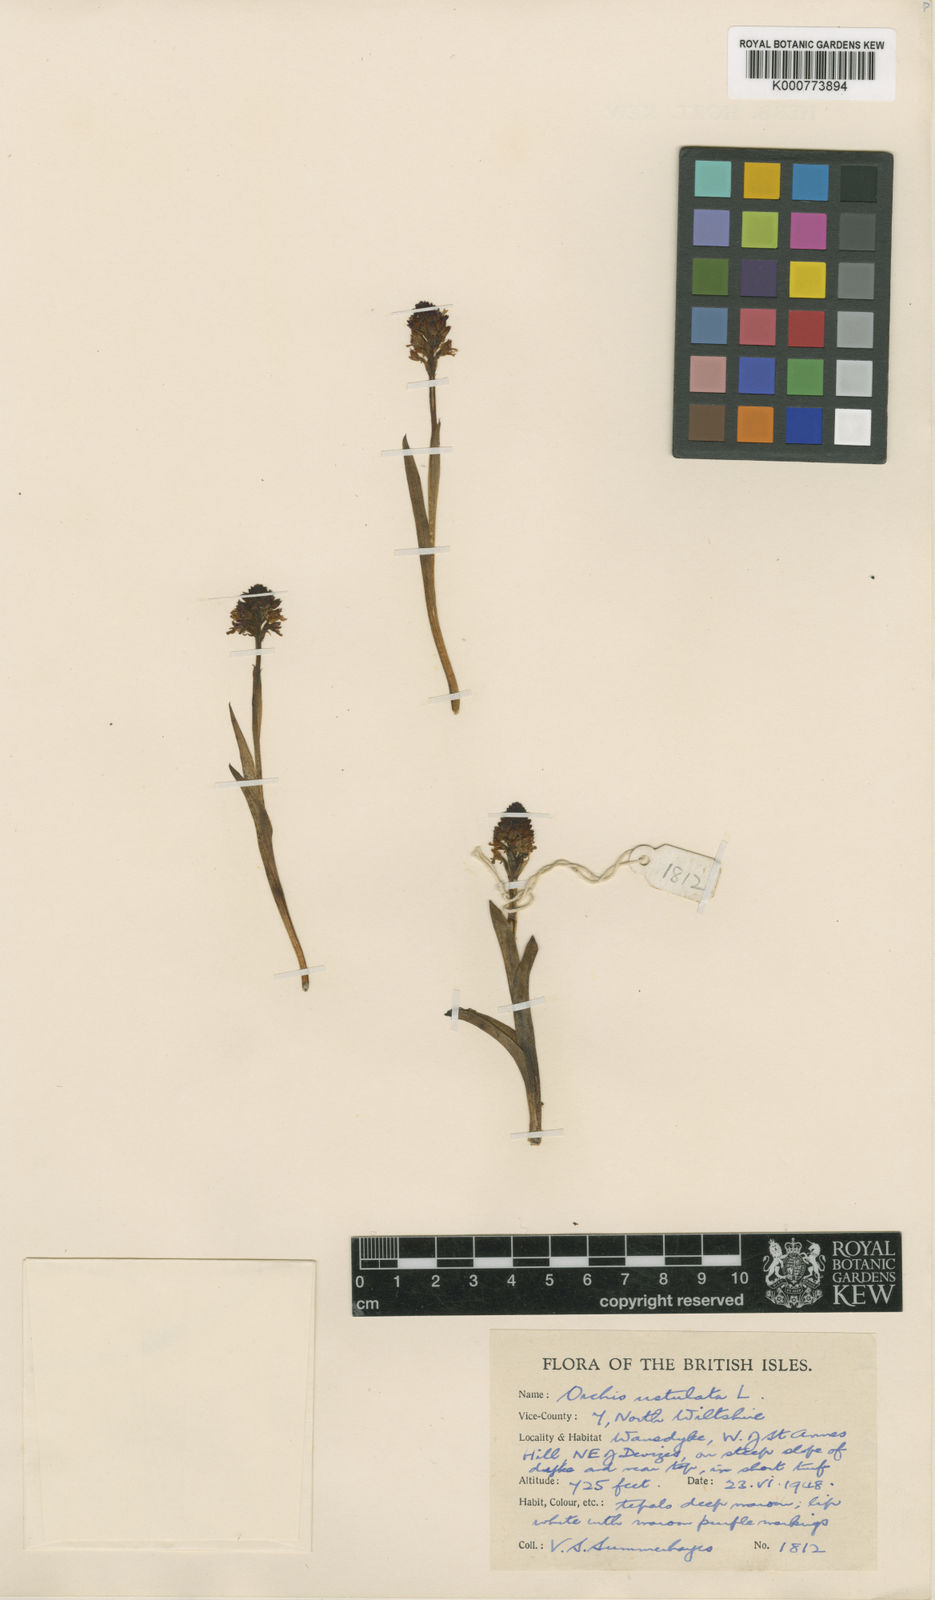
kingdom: Plantae
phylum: Tracheophyta
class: Liliopsida
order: Asparagales
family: Orchidaceae
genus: Neotinea
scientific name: Neotinea ustulata
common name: Burnt orchid
